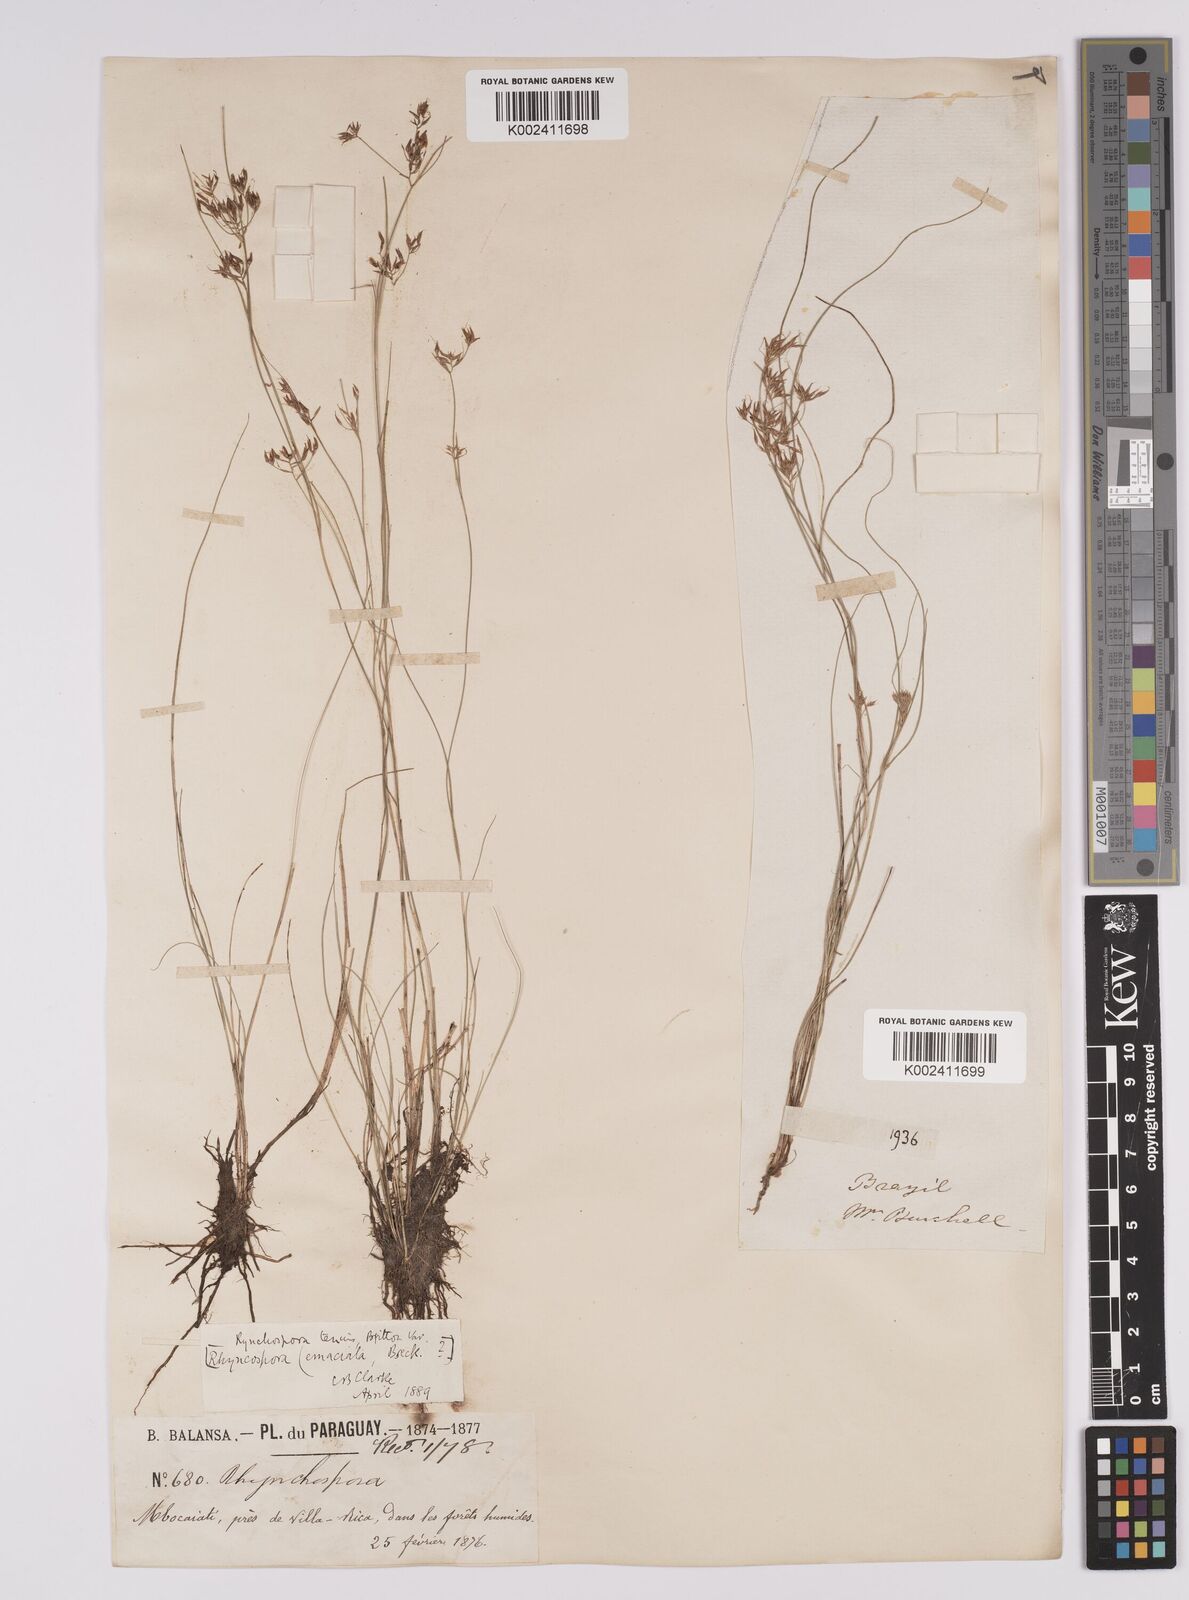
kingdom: Plantae
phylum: Tracheophyta
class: Liliopsida
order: Poales
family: Cyperaceae
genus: Rhynchospora
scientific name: Rhynchospora tenuis
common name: Quill beaksedge
